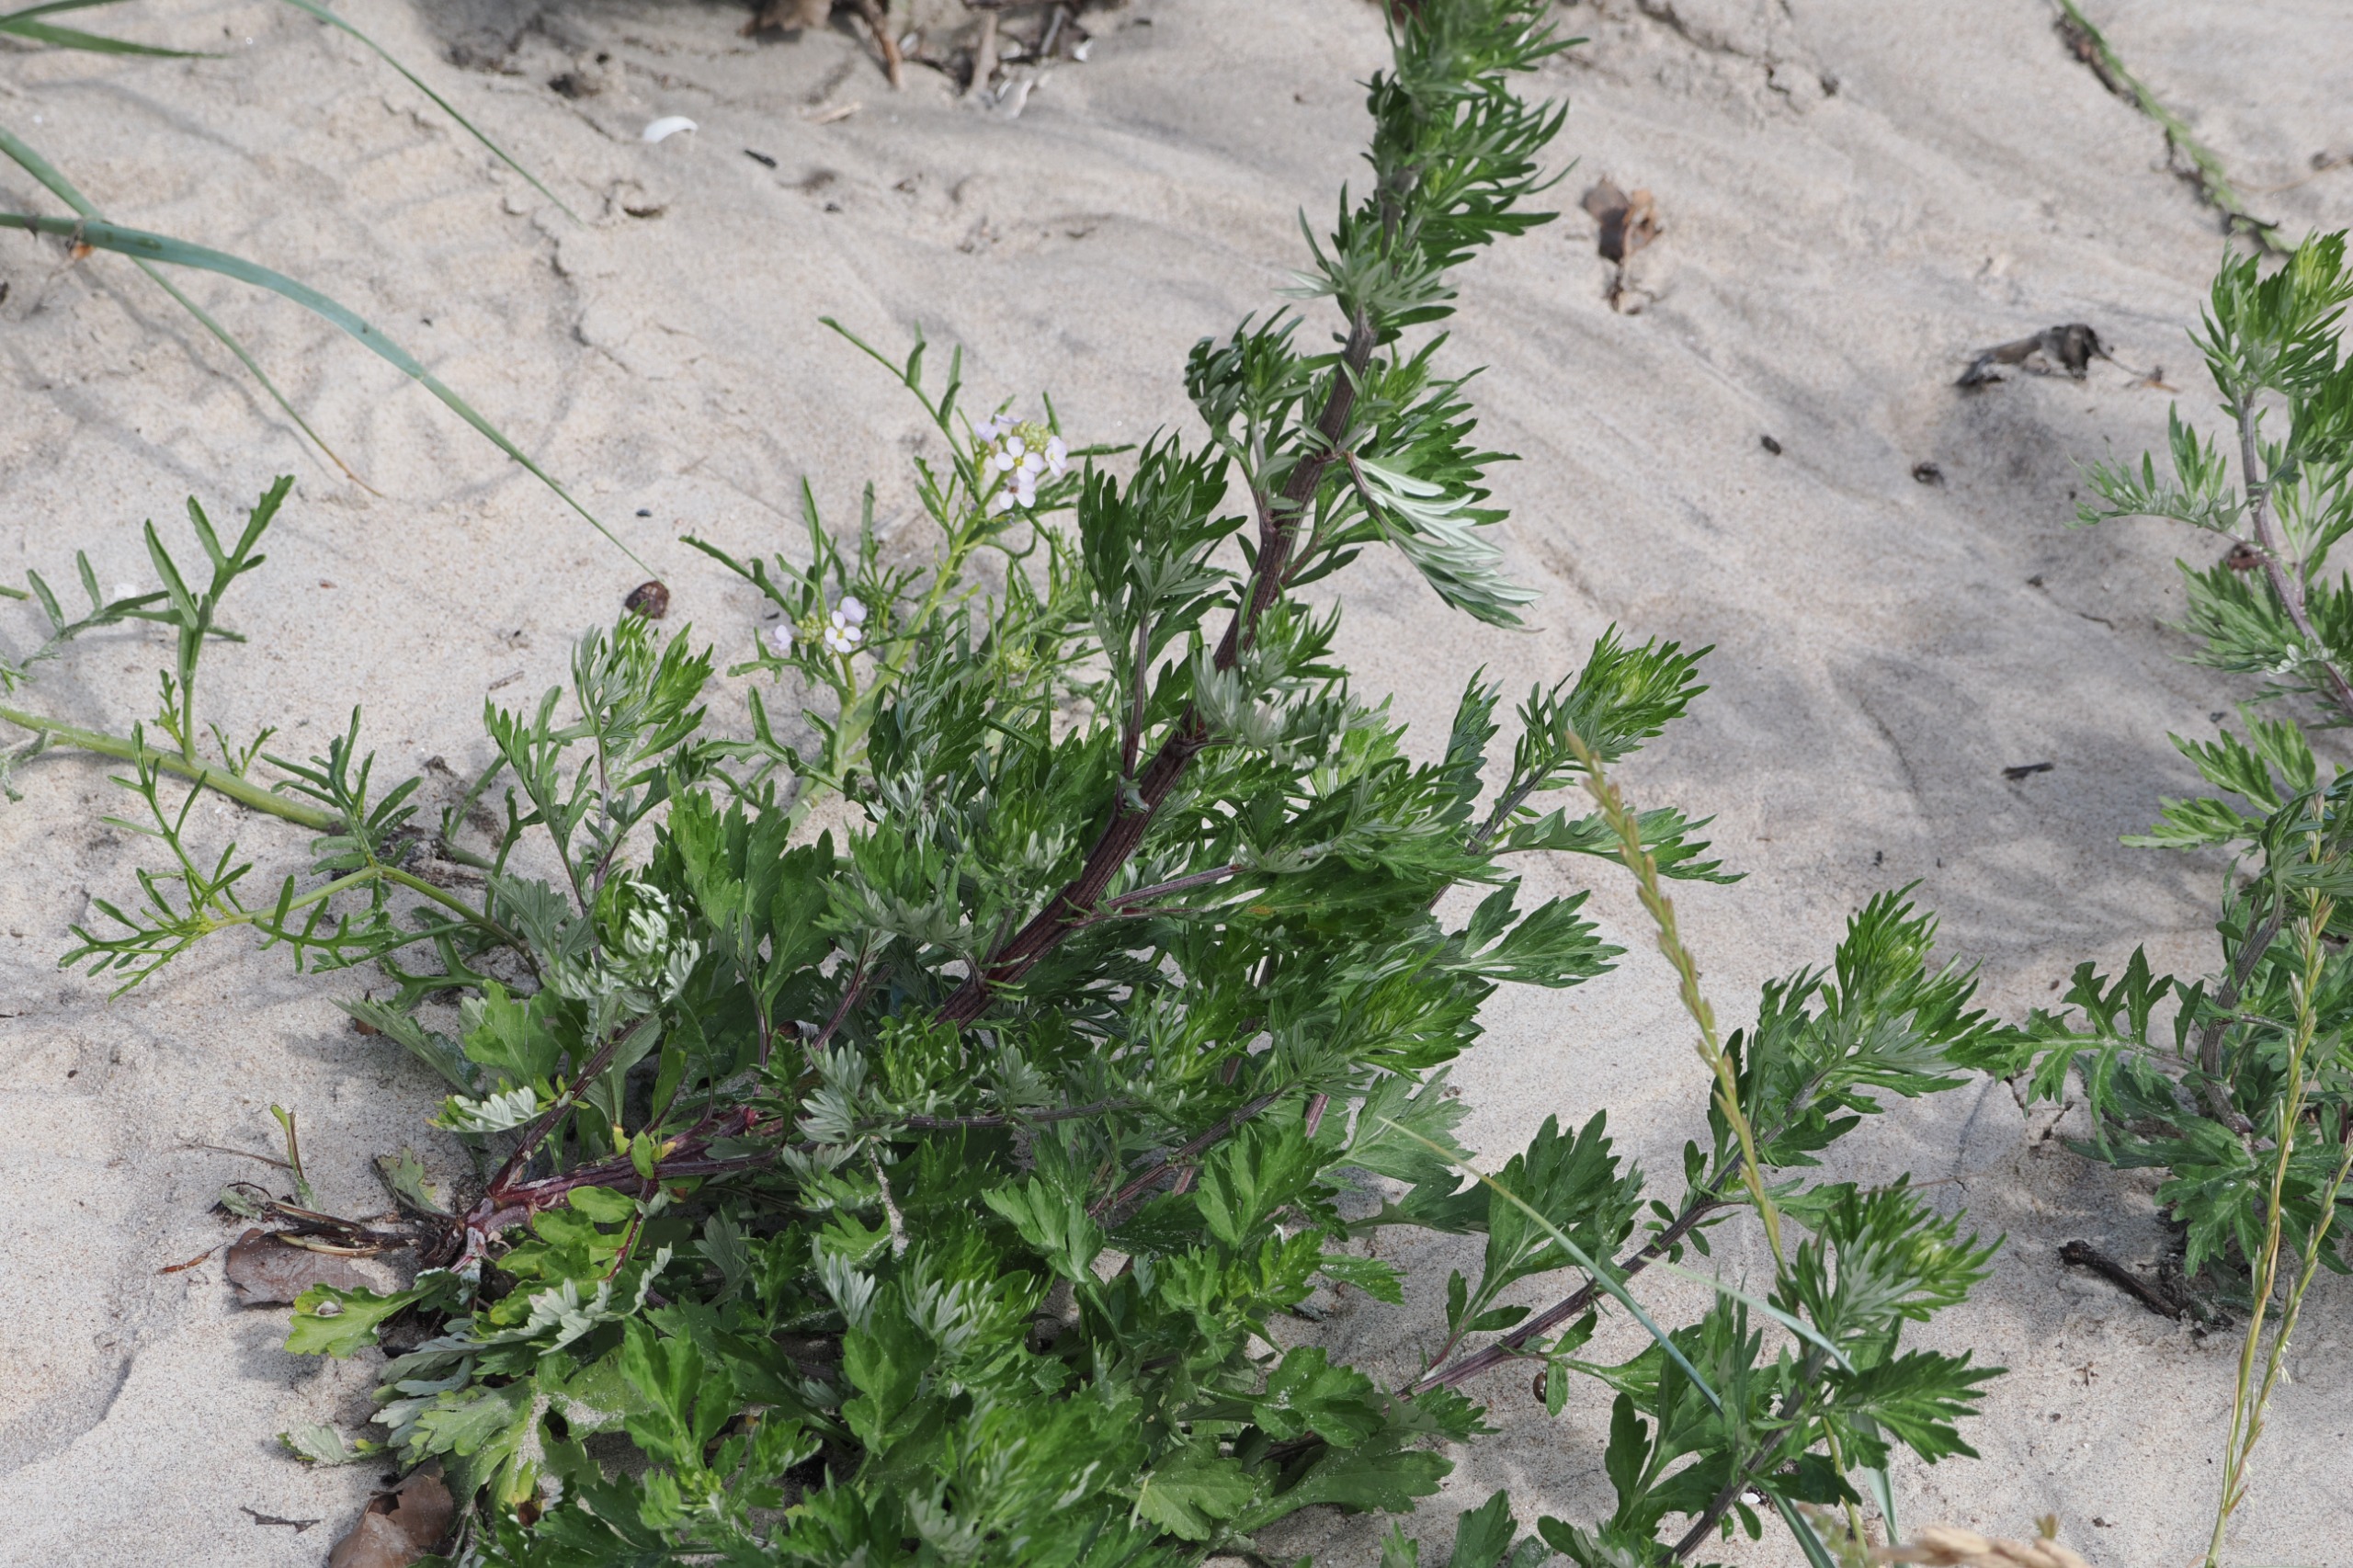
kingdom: Plantae
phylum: Tracheophyta
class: Magnoliopsida
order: Asterales
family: Asteraceae
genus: Artemisia
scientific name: Artemisia vulgaris
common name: Grå-bynke
